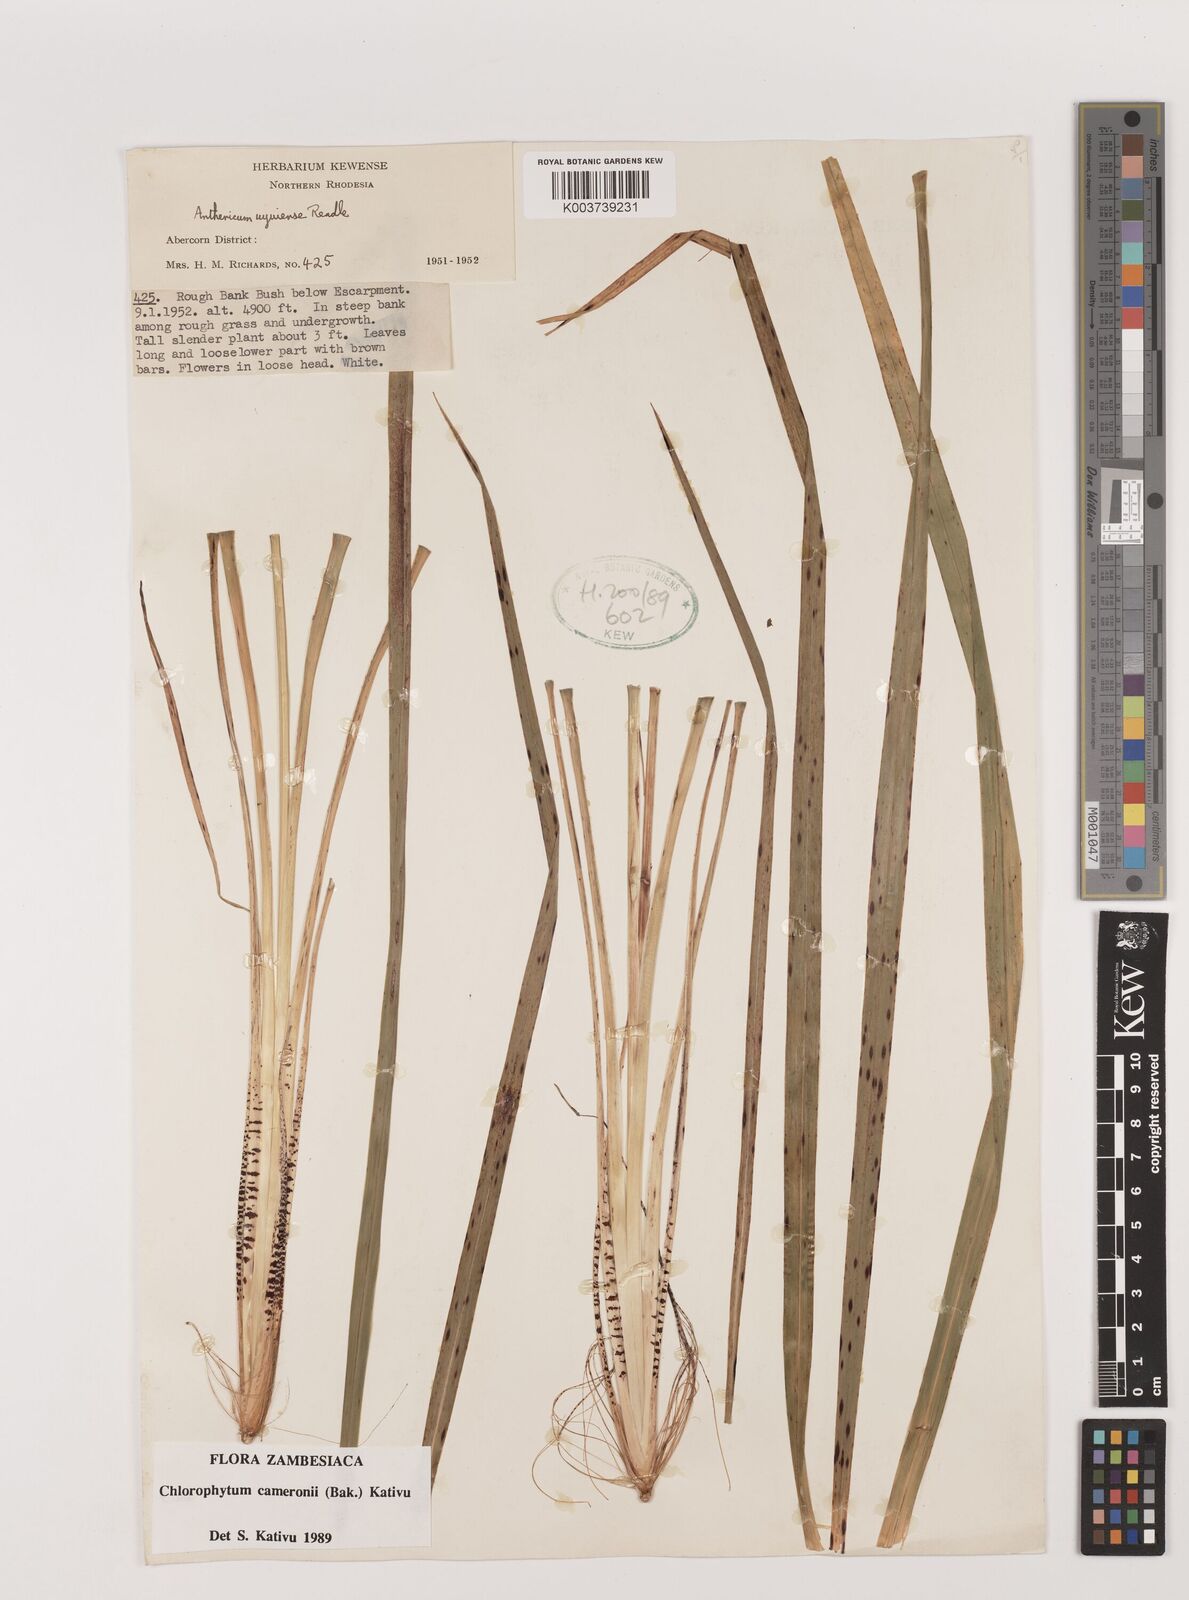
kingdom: Plantae
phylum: Tracheophyta
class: Liliopsida
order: Asparagales
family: Asparagaceae
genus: Chlorophytum
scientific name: Chlorophytum cameronii
